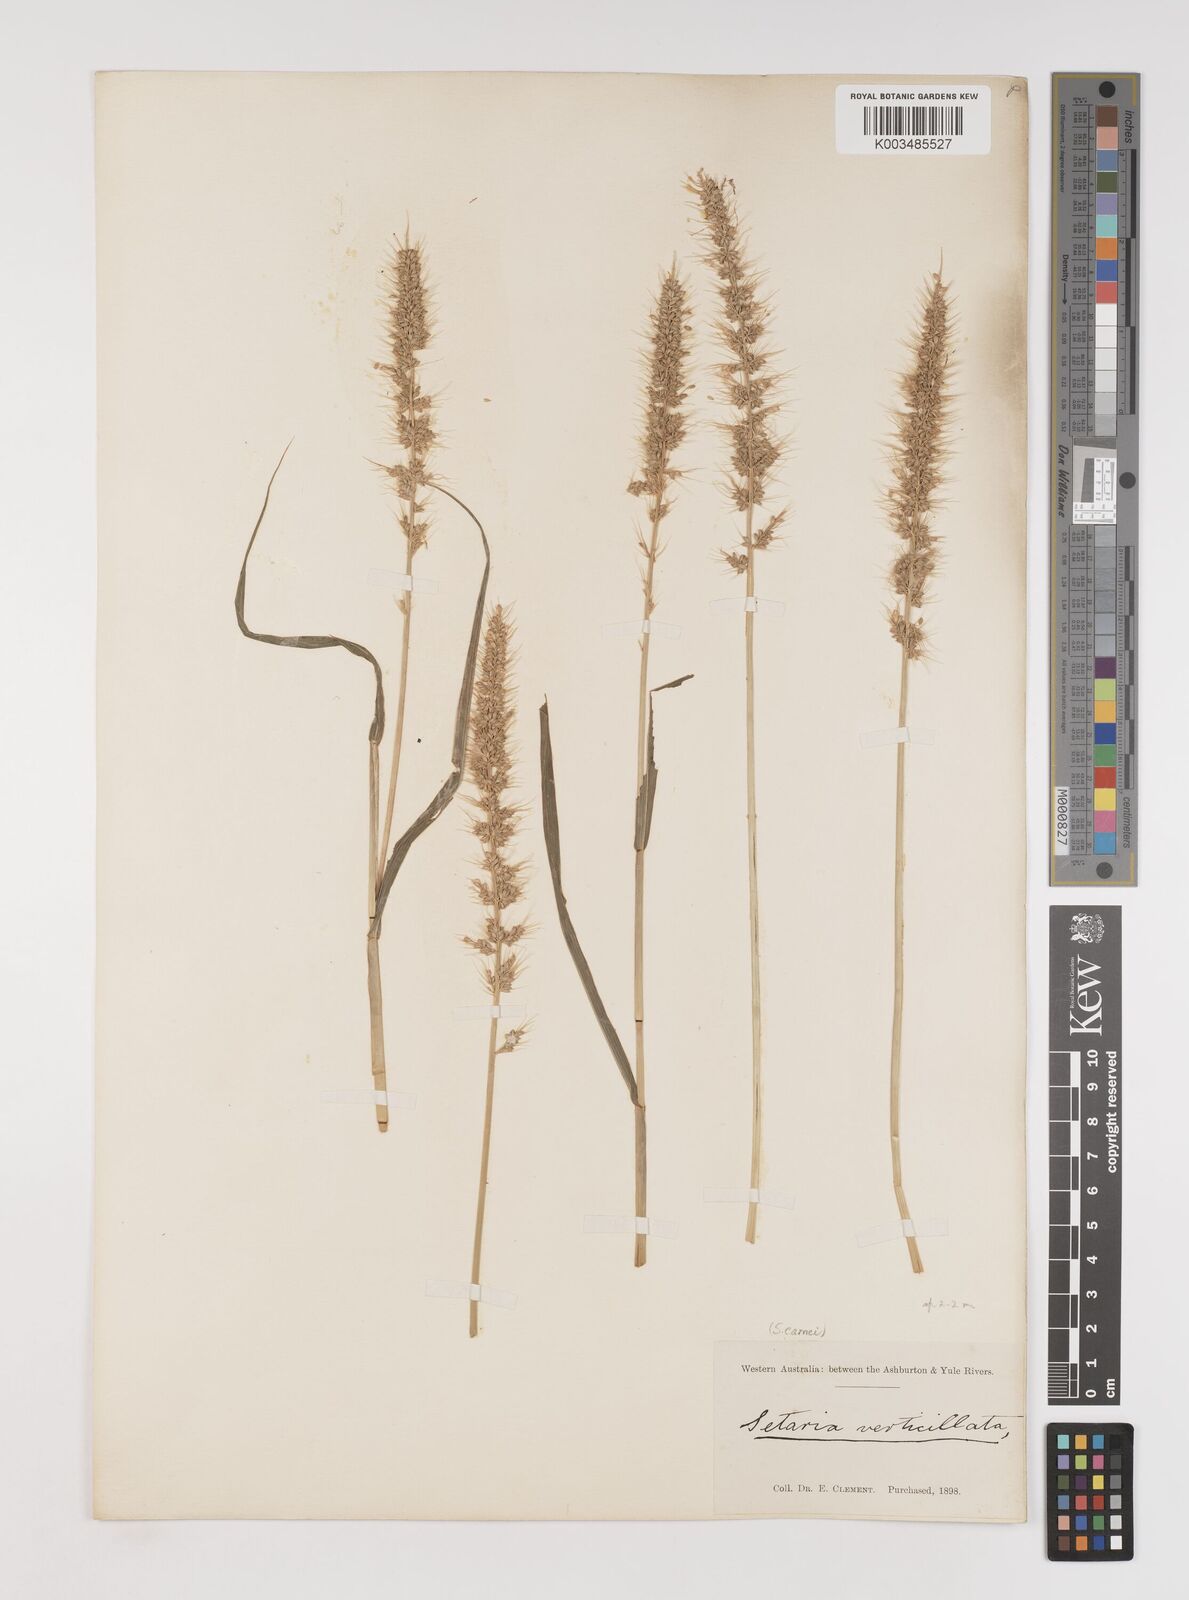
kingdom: Plantae
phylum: Tracheophyta
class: Liliopsida
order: Poales
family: Poaceae
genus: Setaria
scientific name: Setaria verticillata
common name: Hooked bristlegrass
